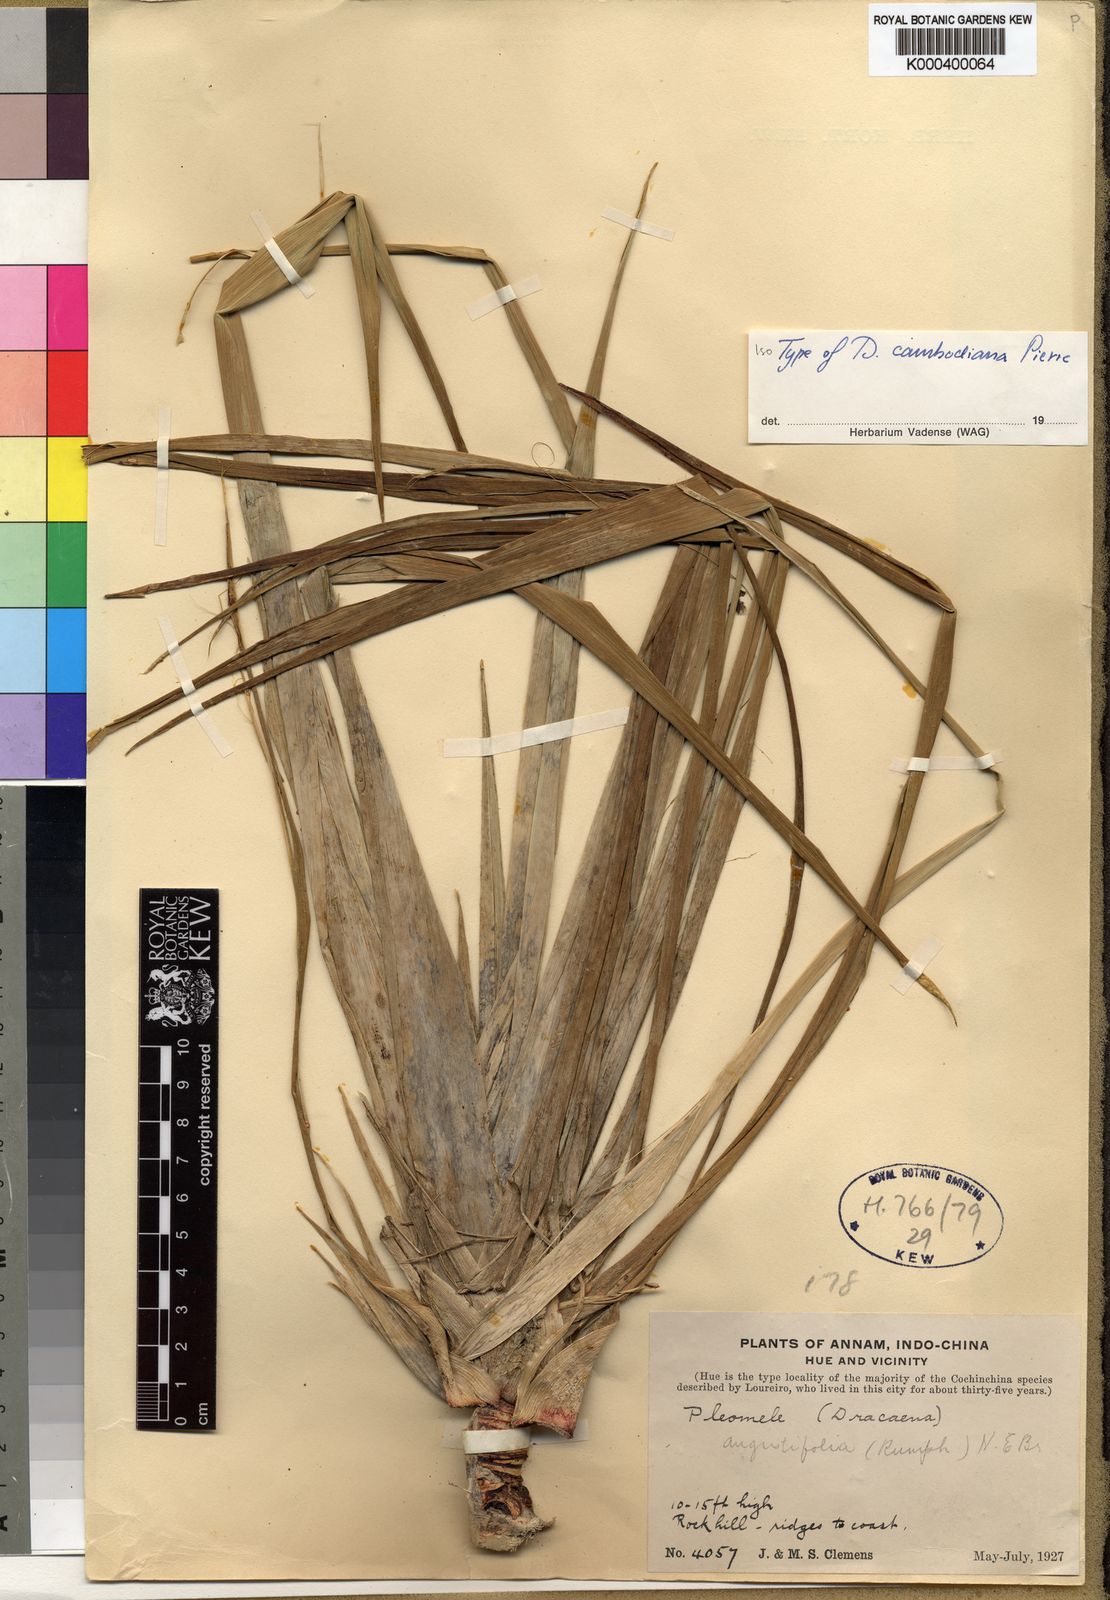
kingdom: Plantae
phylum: Tracheophyta
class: Liliopsida
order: Asparagales
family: Asparagaceae
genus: Dracaena
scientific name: Dracaena cambodiana
